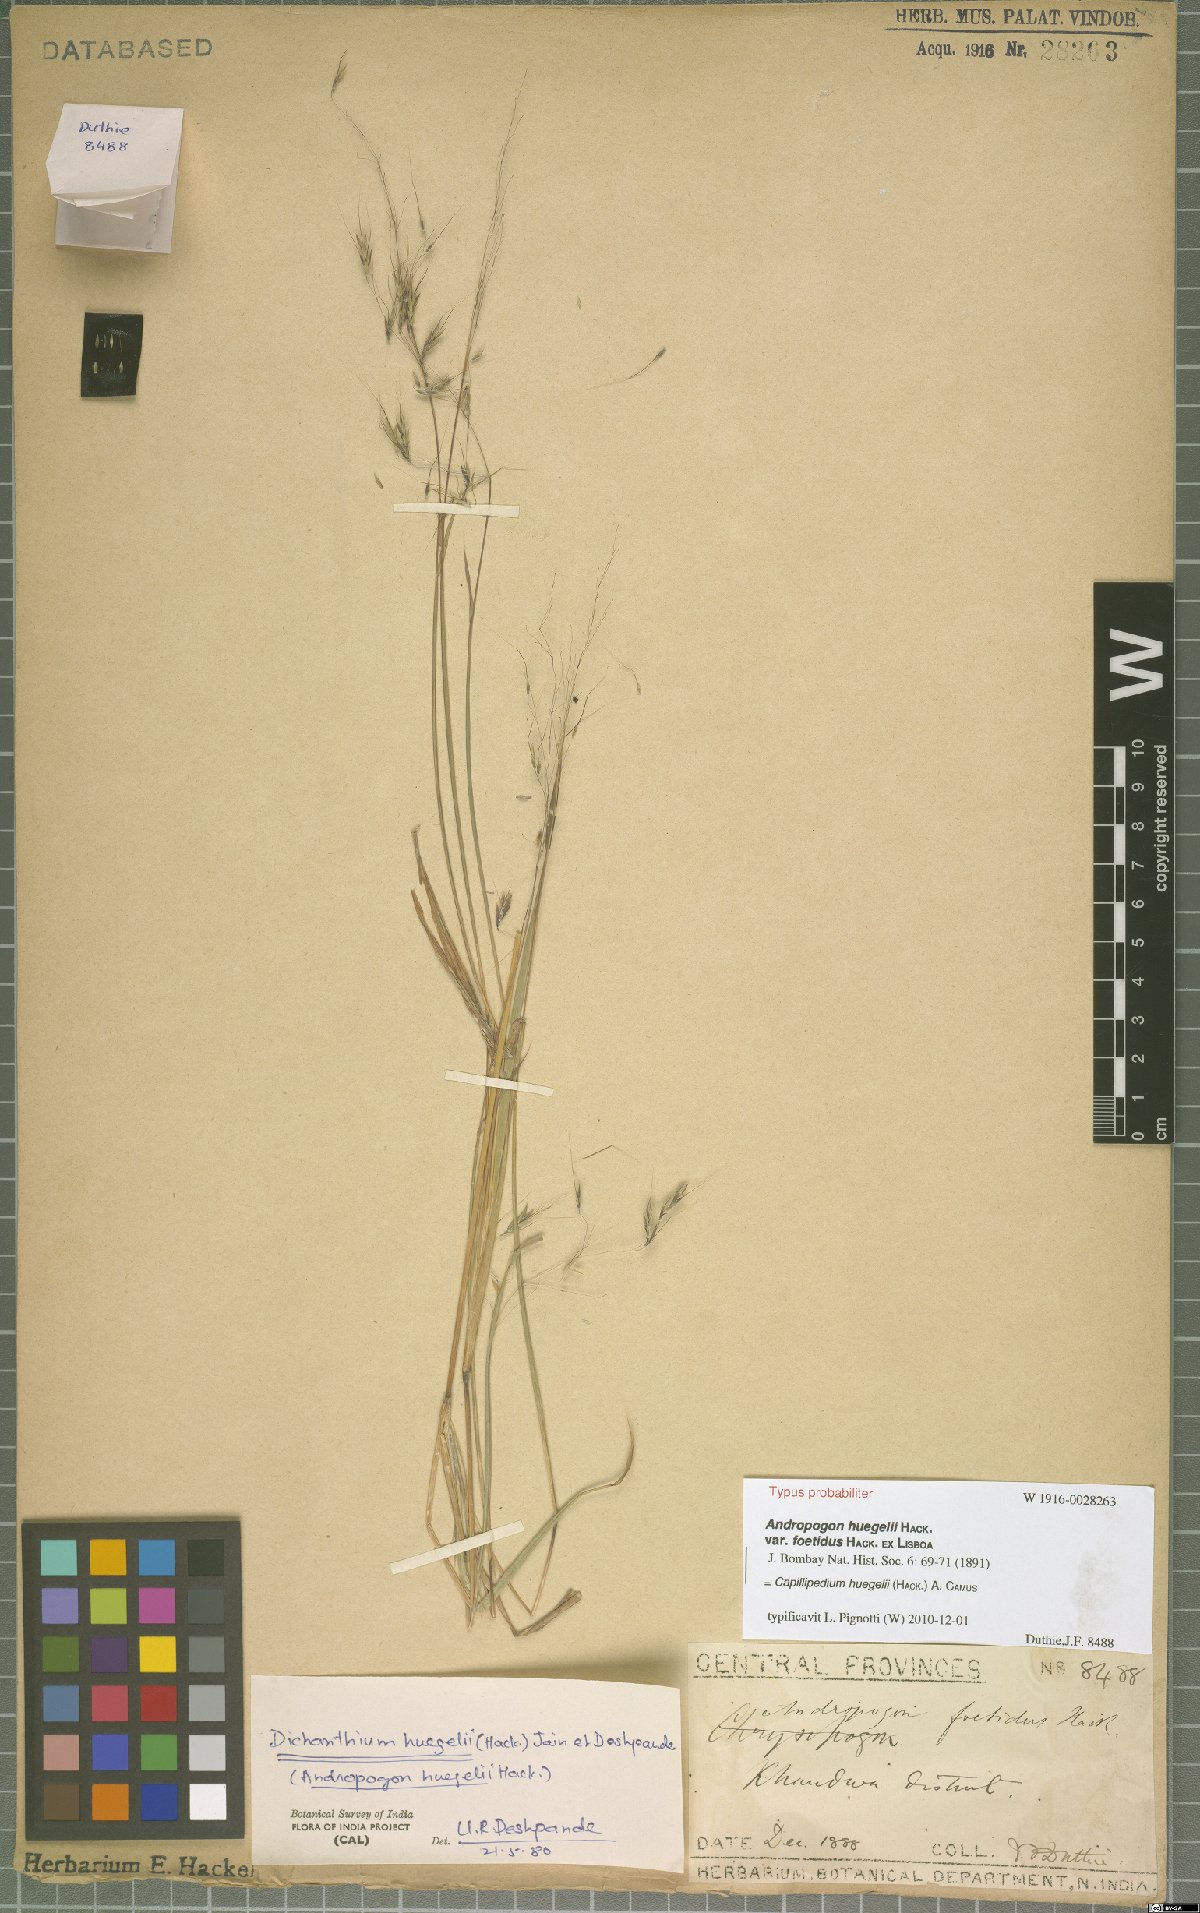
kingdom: Plantae
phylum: Tracheophyta
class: Liliopsida
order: Poales
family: Poaceae
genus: Capillipedium
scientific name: Capillipedium huegelii
